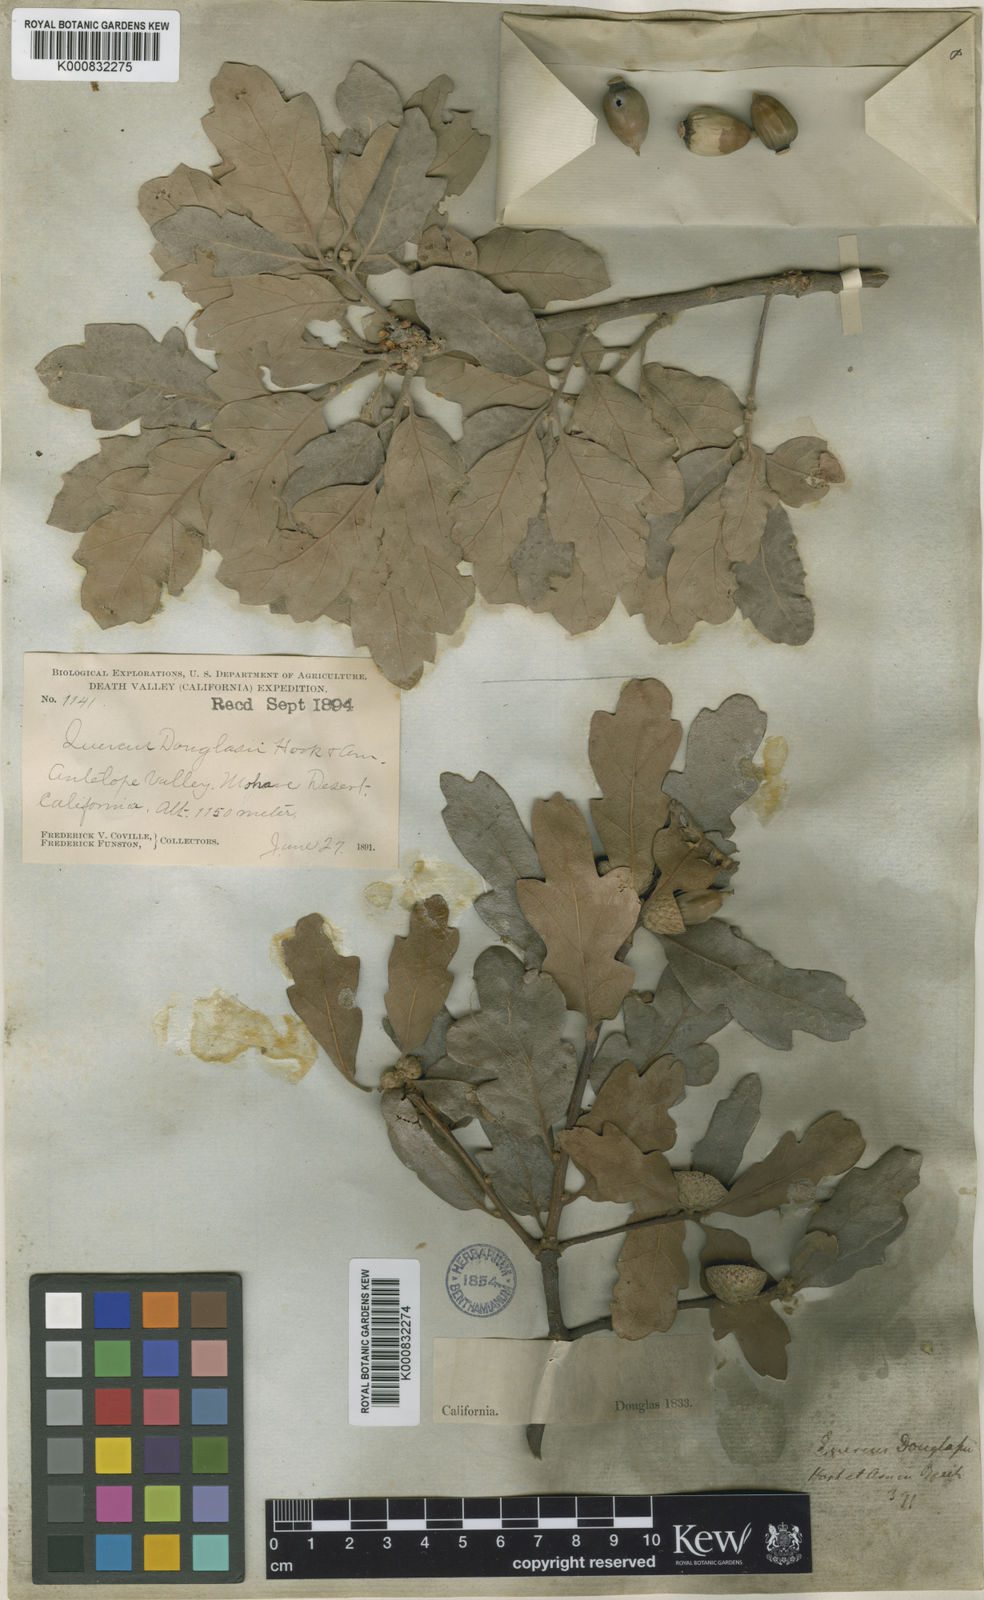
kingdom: Plantae
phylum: Tracheophyta
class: Magnoliopsida
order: Fagales
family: Fagaceae
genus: Quercus
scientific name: Quercus douglasii
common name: Blue oak
